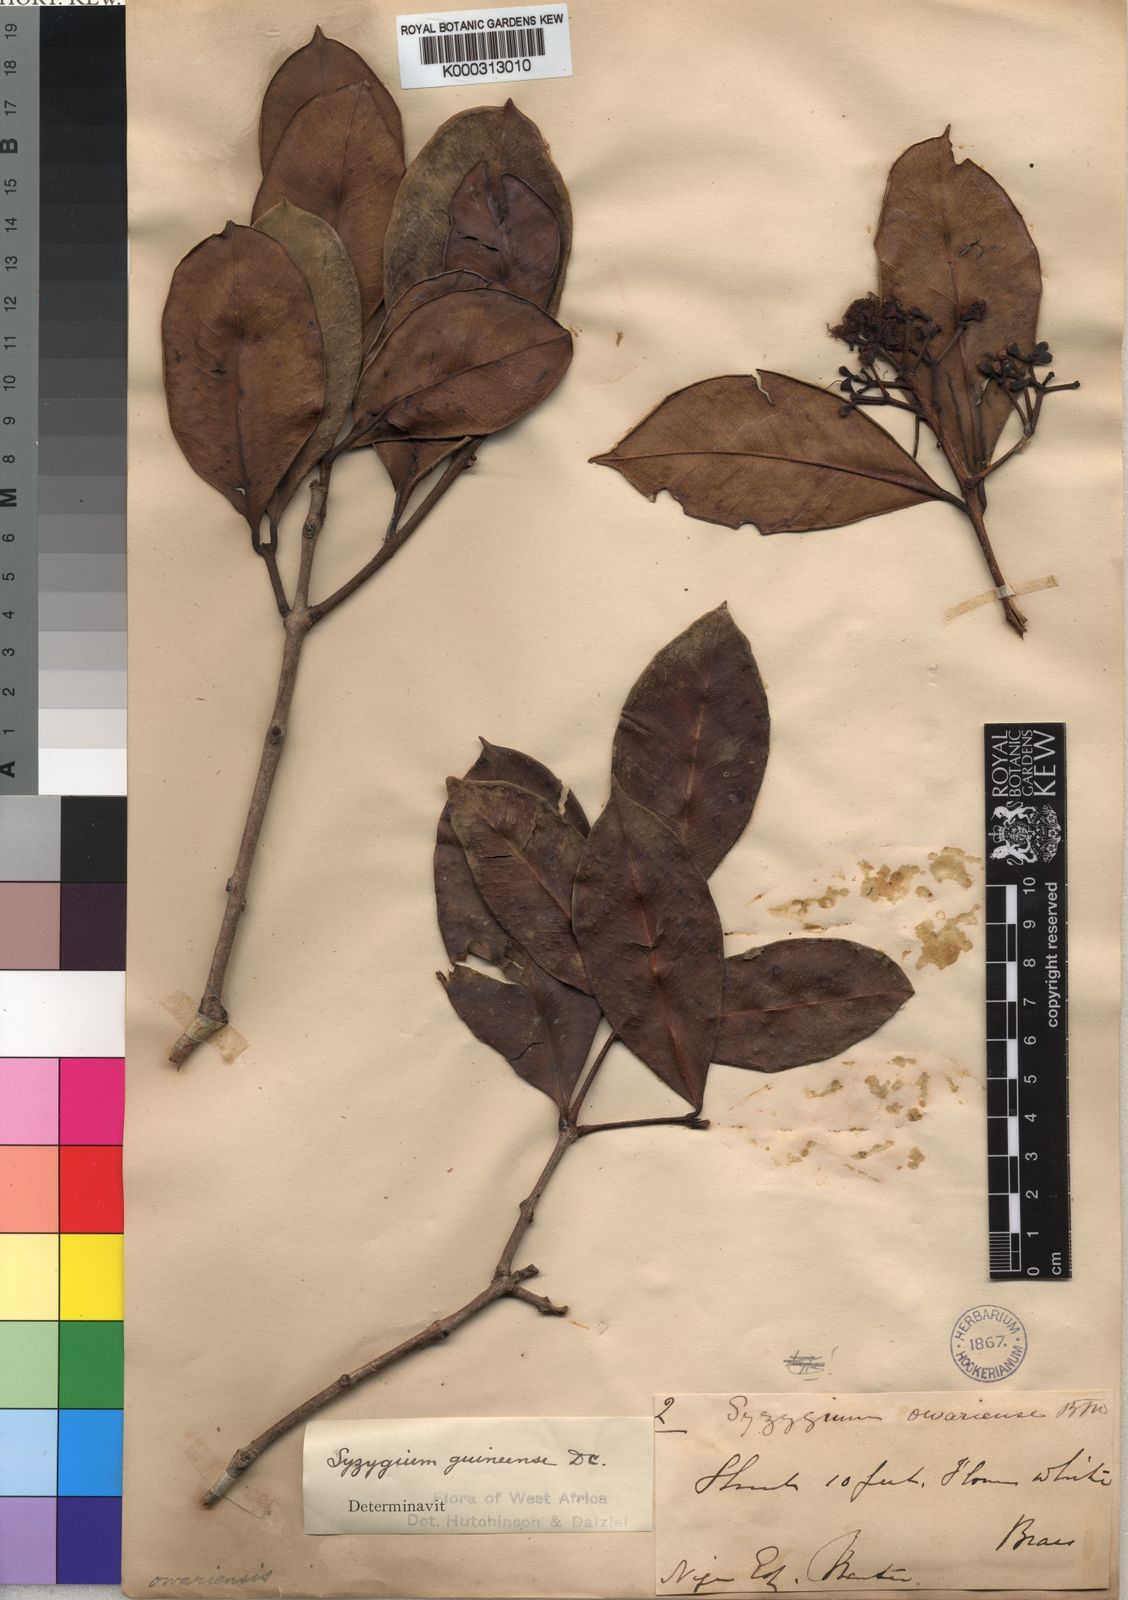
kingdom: Plantae
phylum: Tracheophyta
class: Magnoliopsida
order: Myrtales
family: Myrtaceae
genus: Syzygium
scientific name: Syzygium guineense
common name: Water-pear
